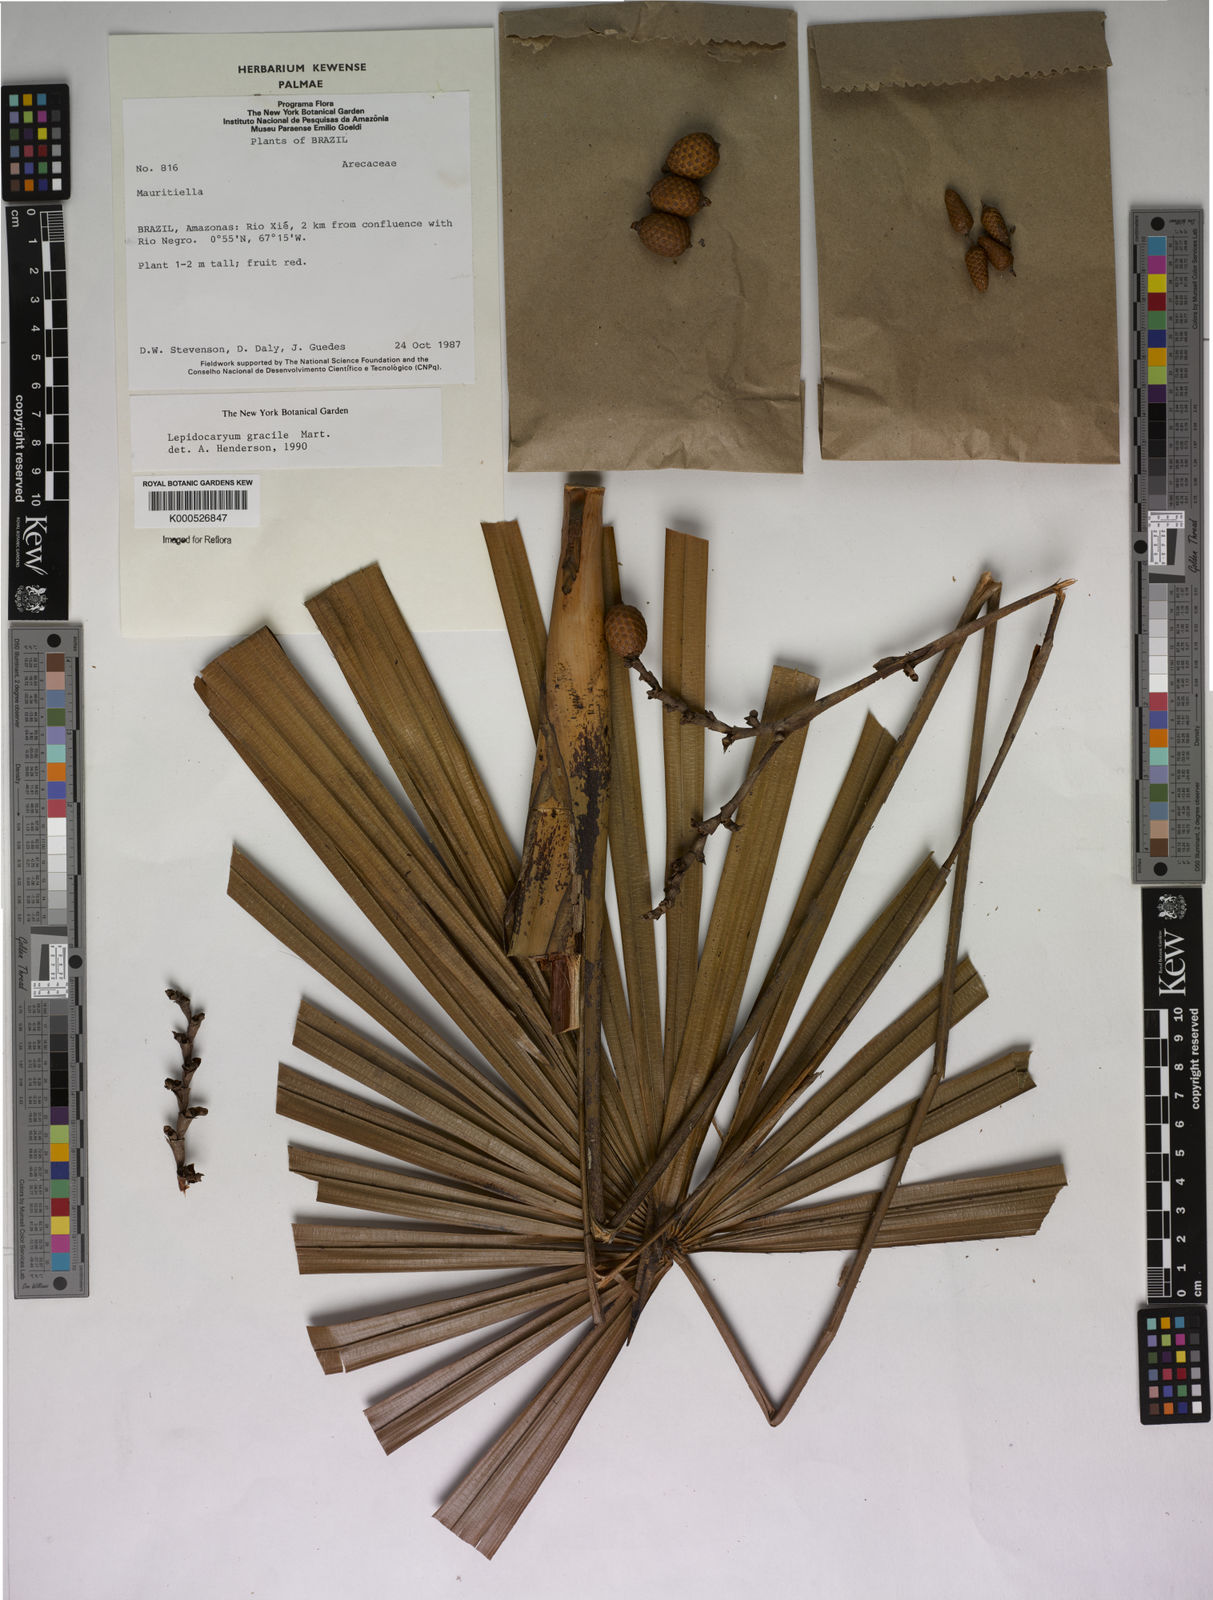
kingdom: Plantae
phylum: Tracheophyta
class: Liliopsida
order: Arecales
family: Arecaceae
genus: Lepidocaryum
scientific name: Lepidocaryum tenue
